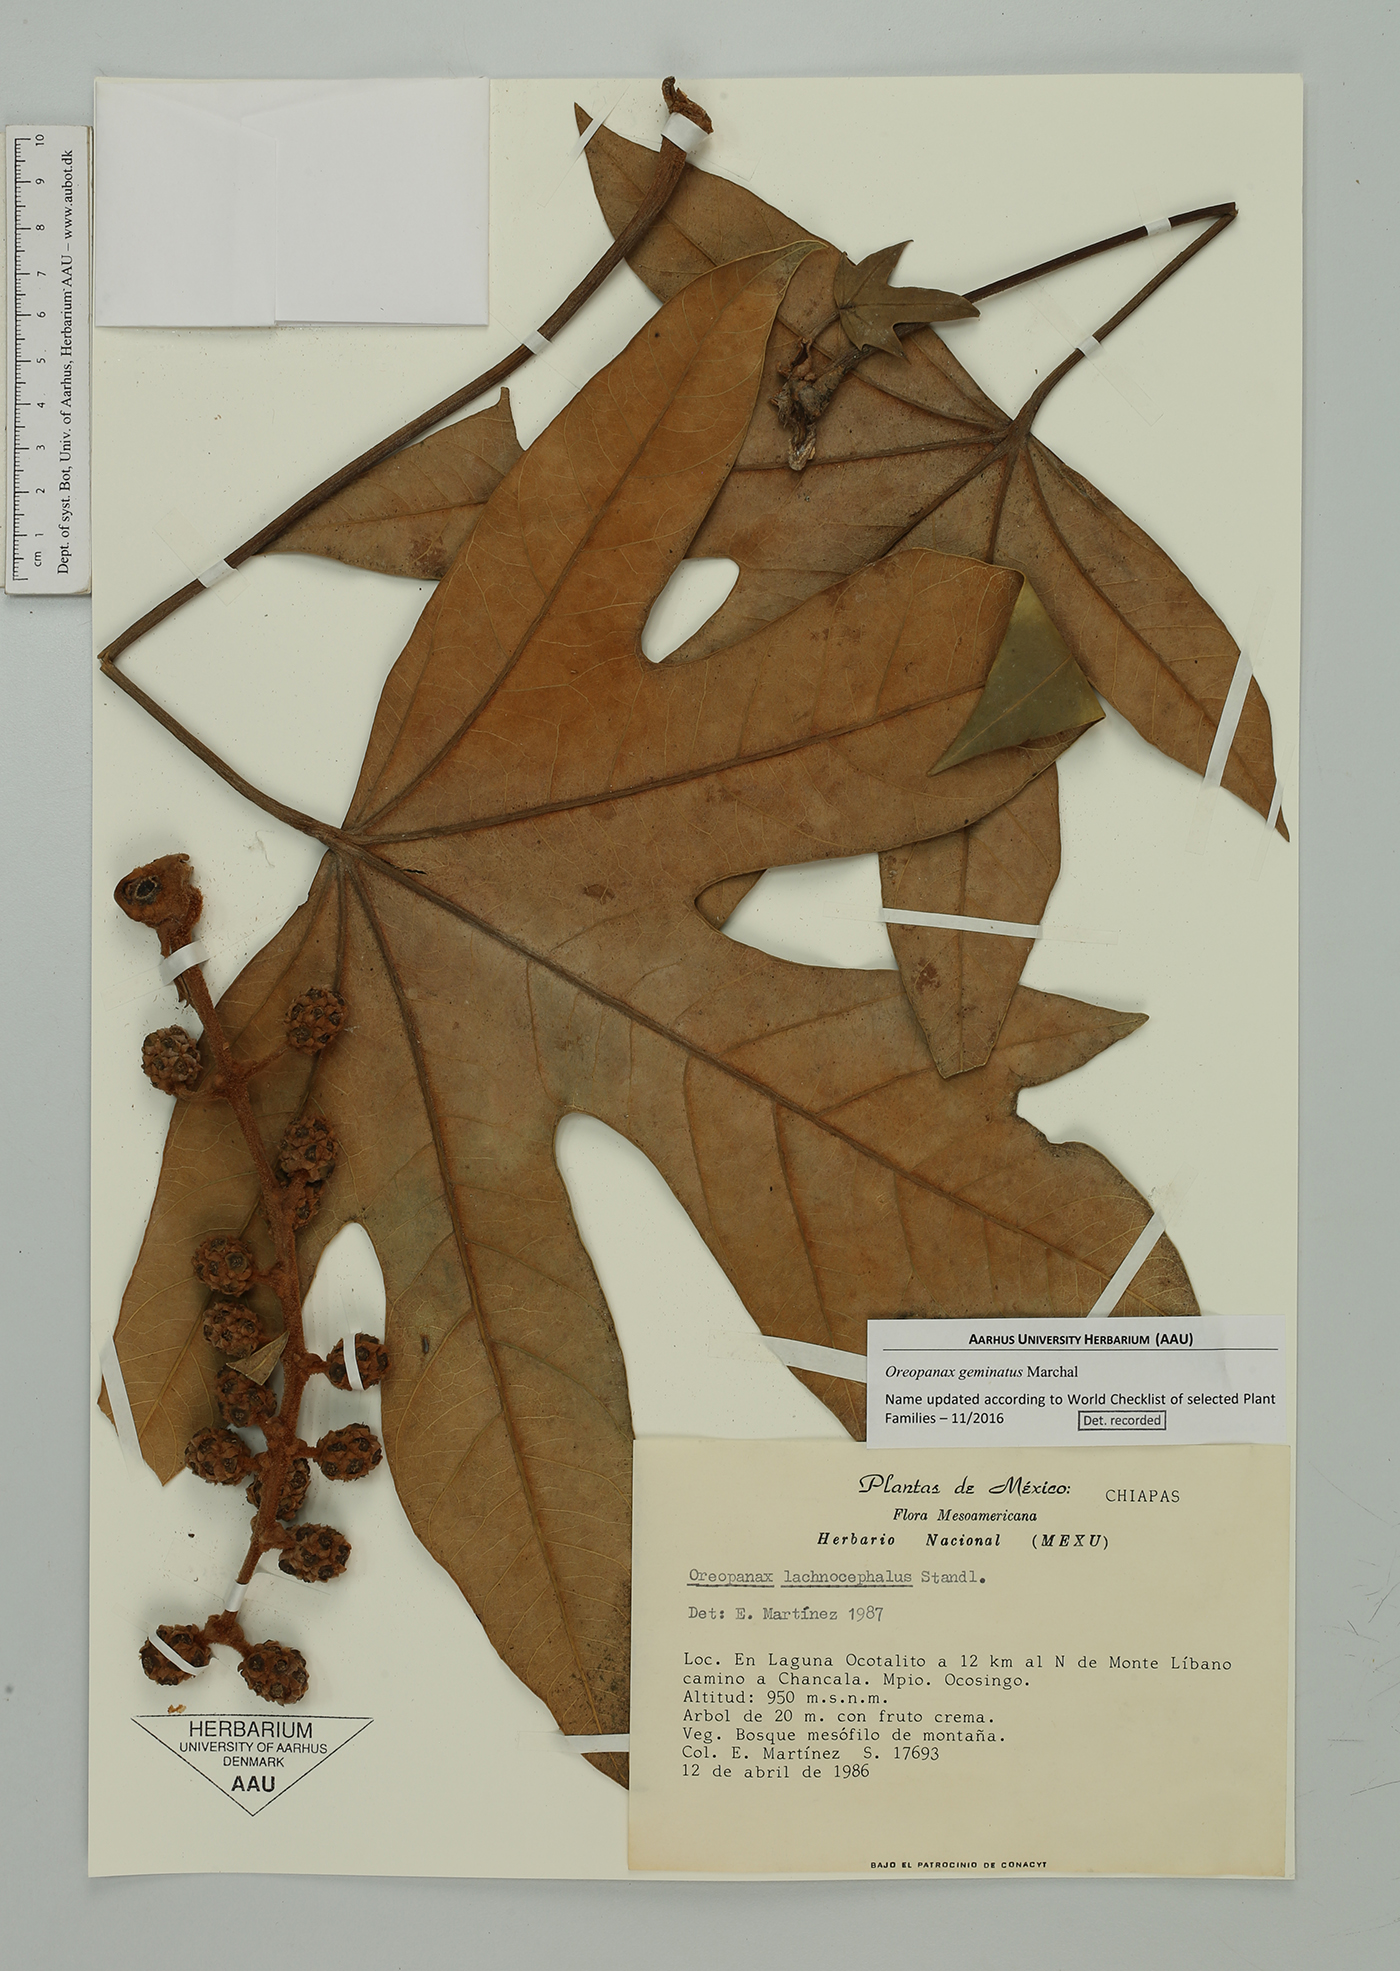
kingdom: Plantae
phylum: Tracheophyta
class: Magnoliopsida
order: Apiales
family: Araliaceae
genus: Oreopanax
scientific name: Oreopanax geminatus
